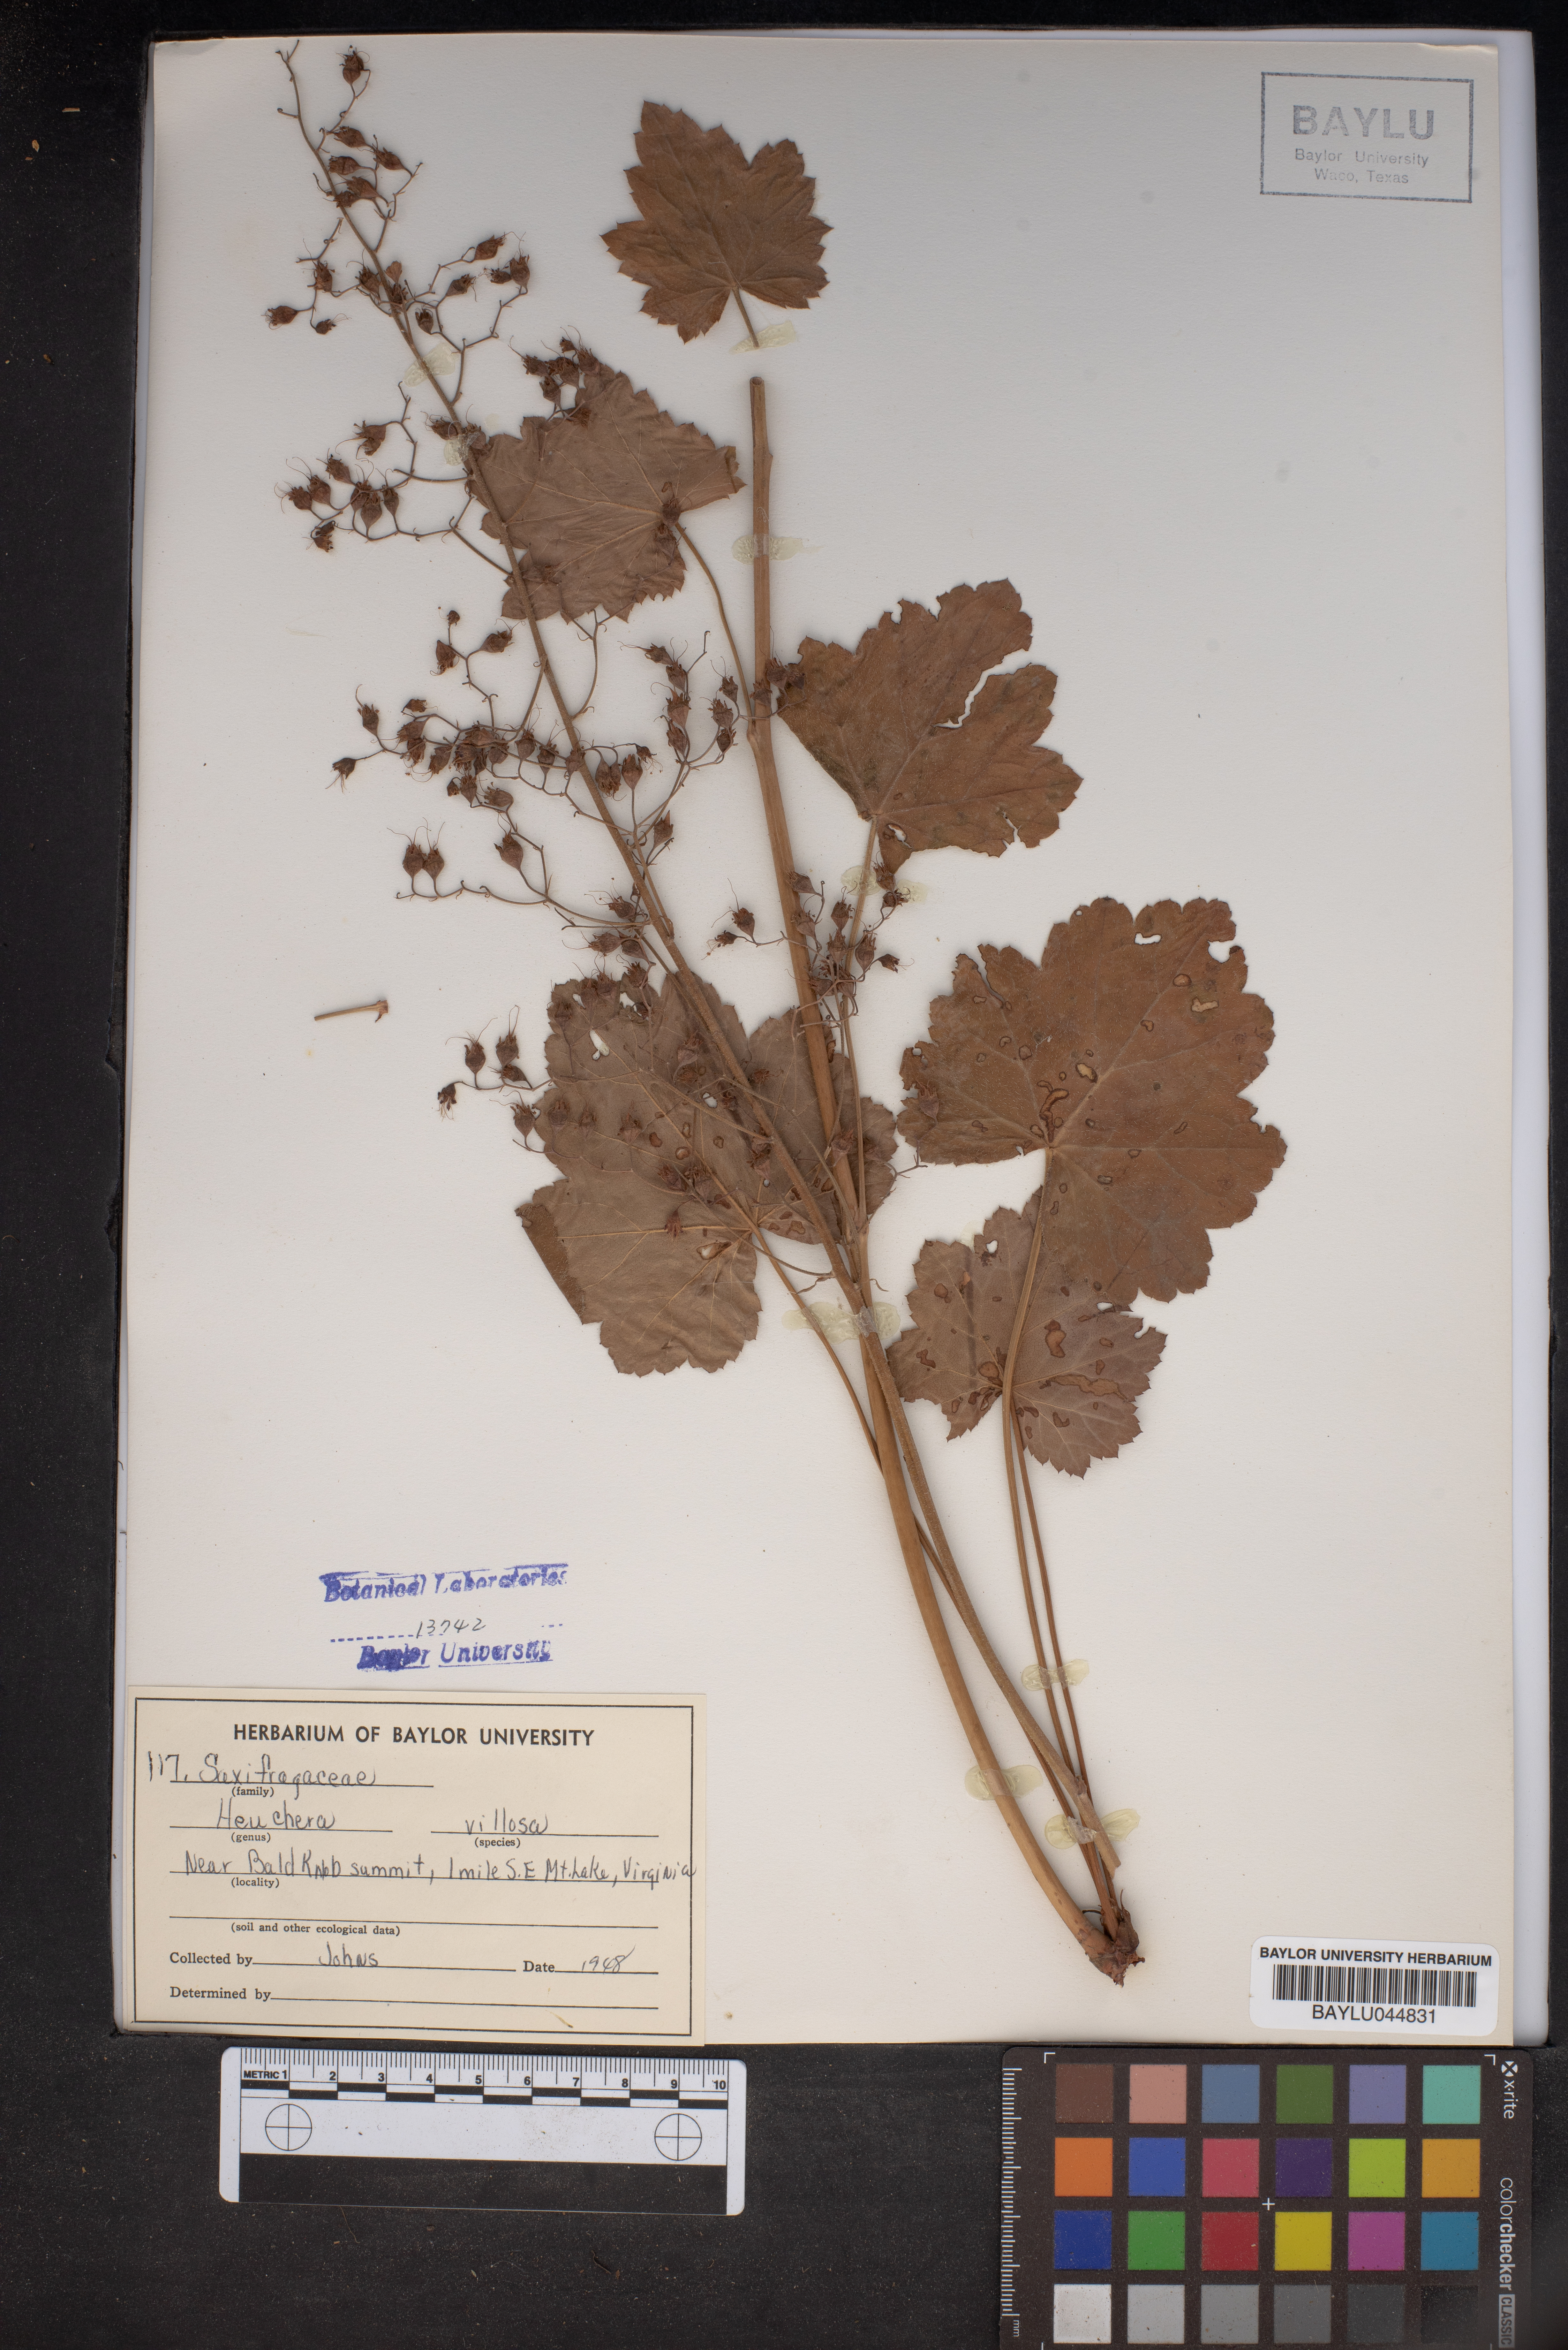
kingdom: Plantae
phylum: Tracheophyta
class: Magnoliopsida
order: Saxifragales
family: Saxifragaceae
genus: Heuchera
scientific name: Heuchera villosa
